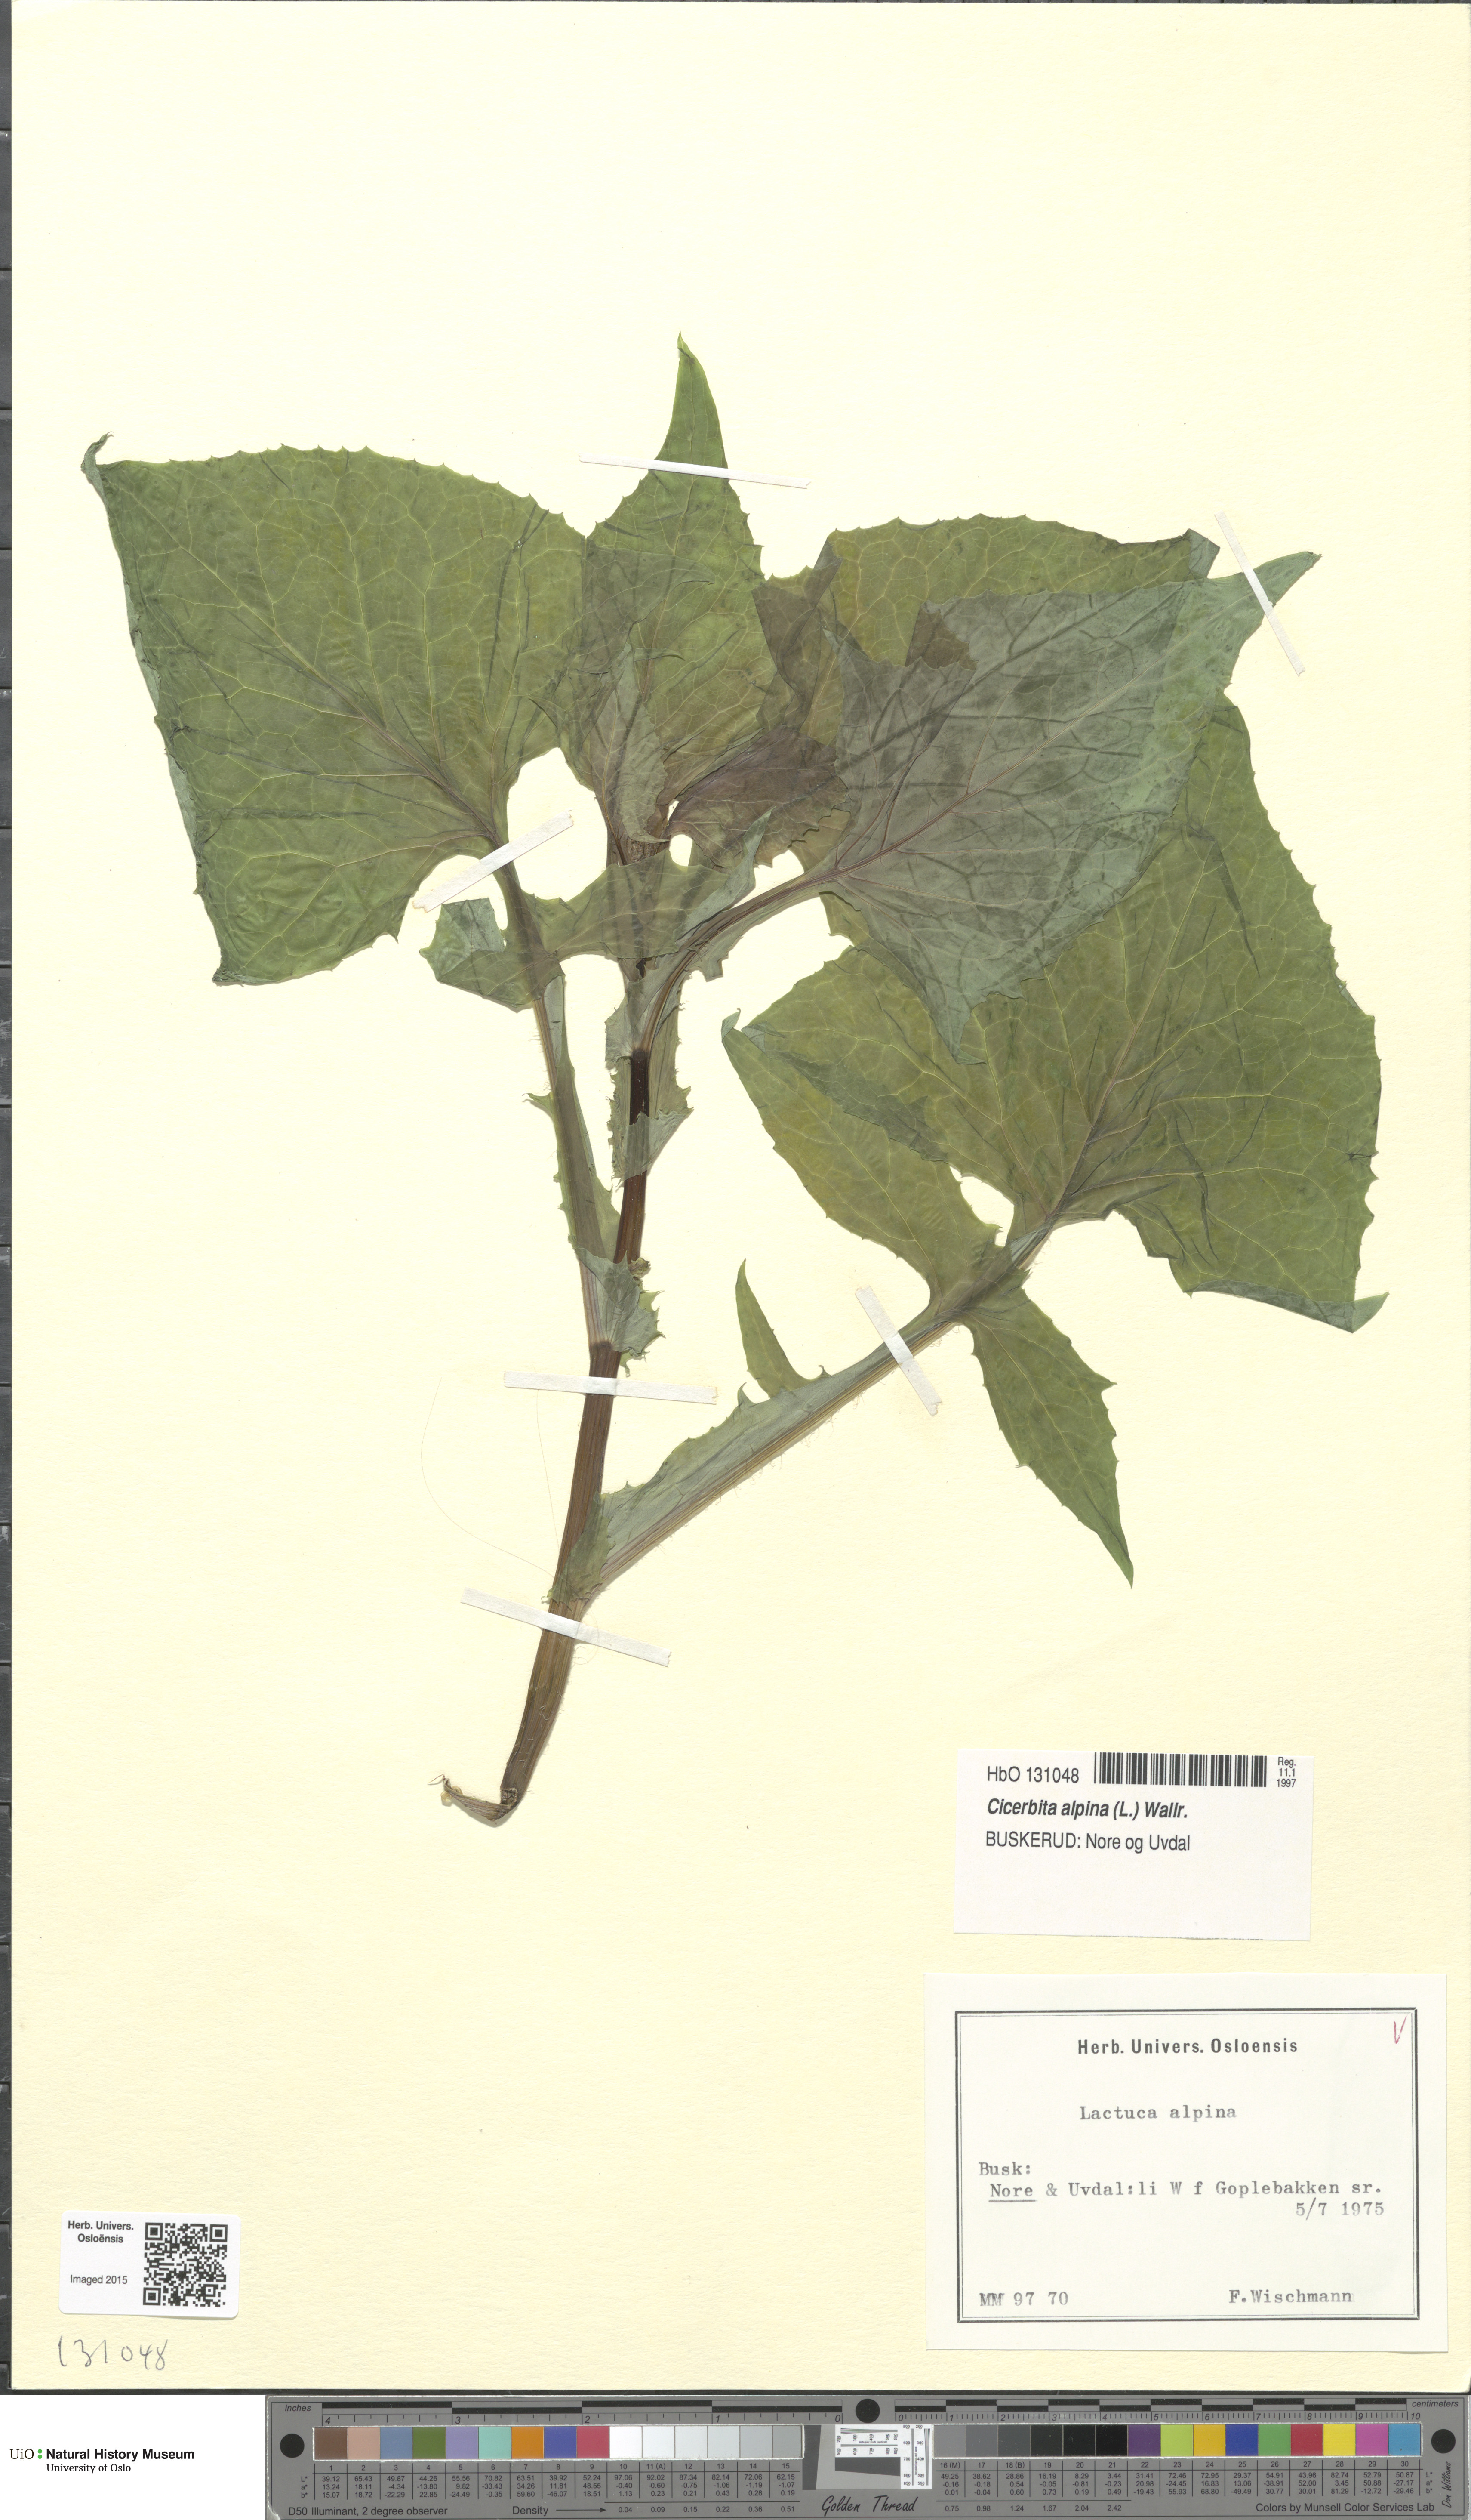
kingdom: Plantae
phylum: Tracheophyta
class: Magnoliopsida
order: Asterales
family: Asteraceae
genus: Cicerbita
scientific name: Cicerbita alpina
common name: Alpine blue-sow-thistle
